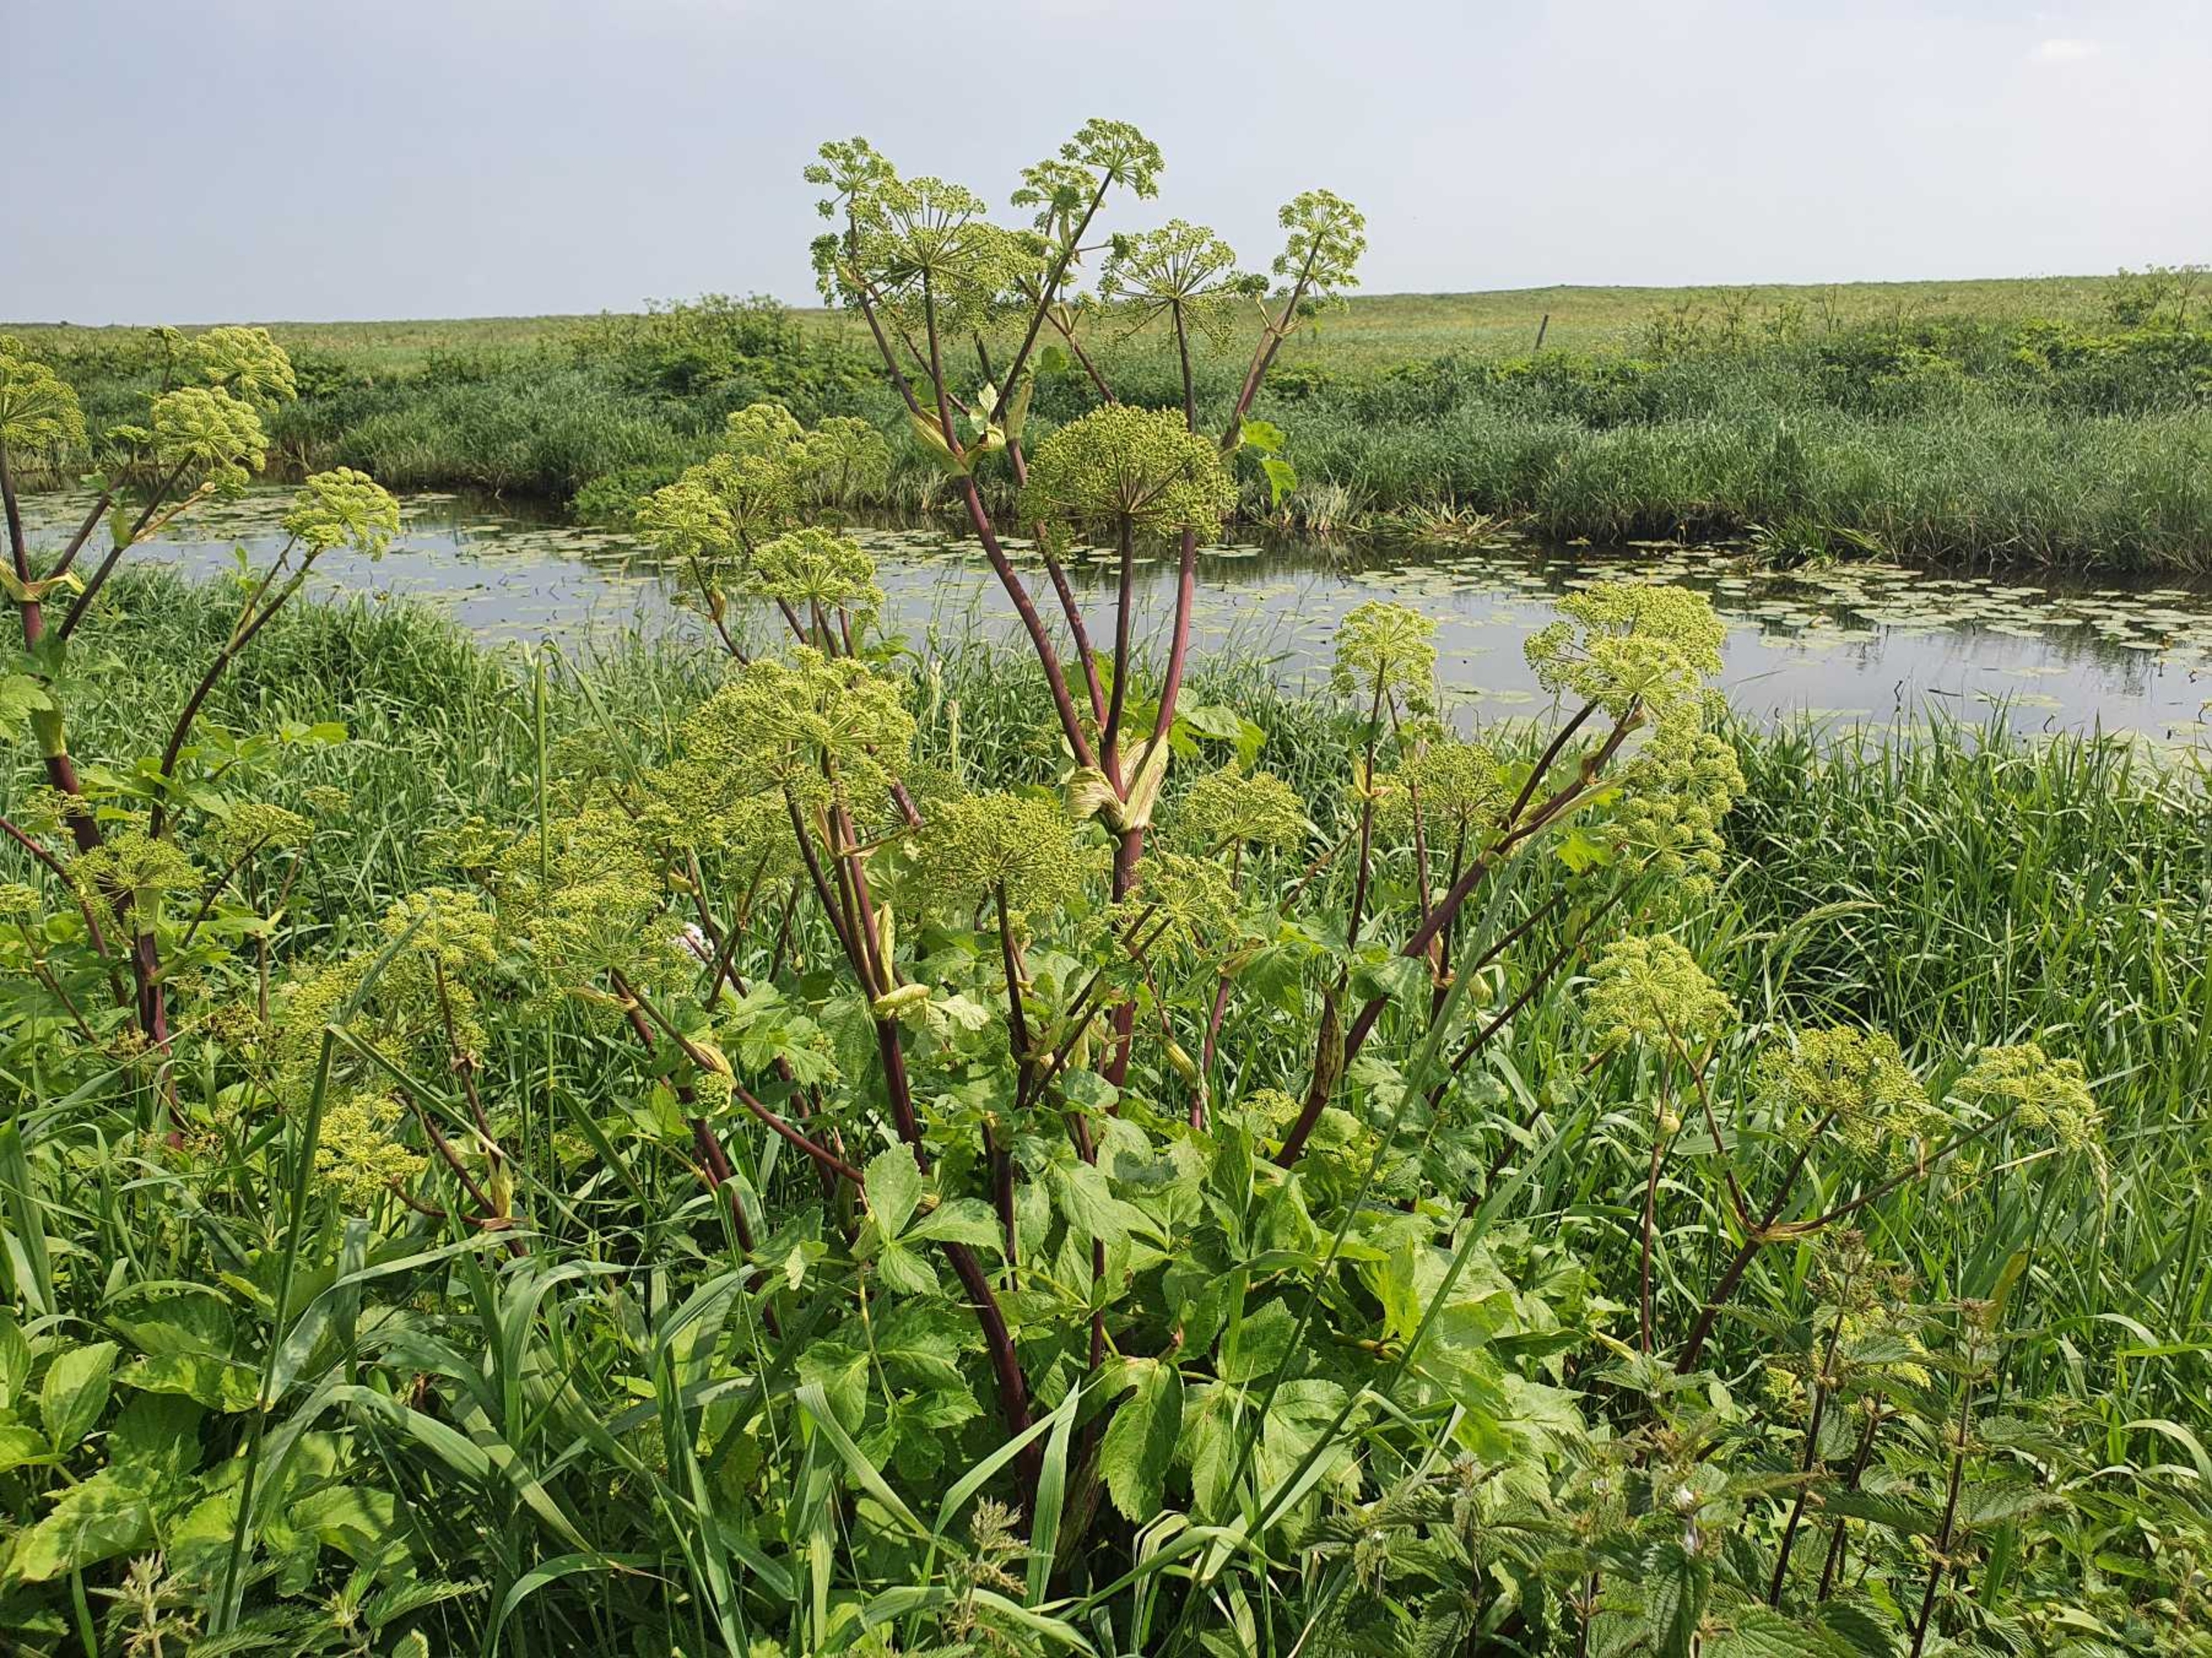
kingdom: Plantae
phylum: Tracheophyta
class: Magnoliopsida
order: Apiales
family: Apiaceae
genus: Angelica
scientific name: Angelica archangelica
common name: Strand-kvan
